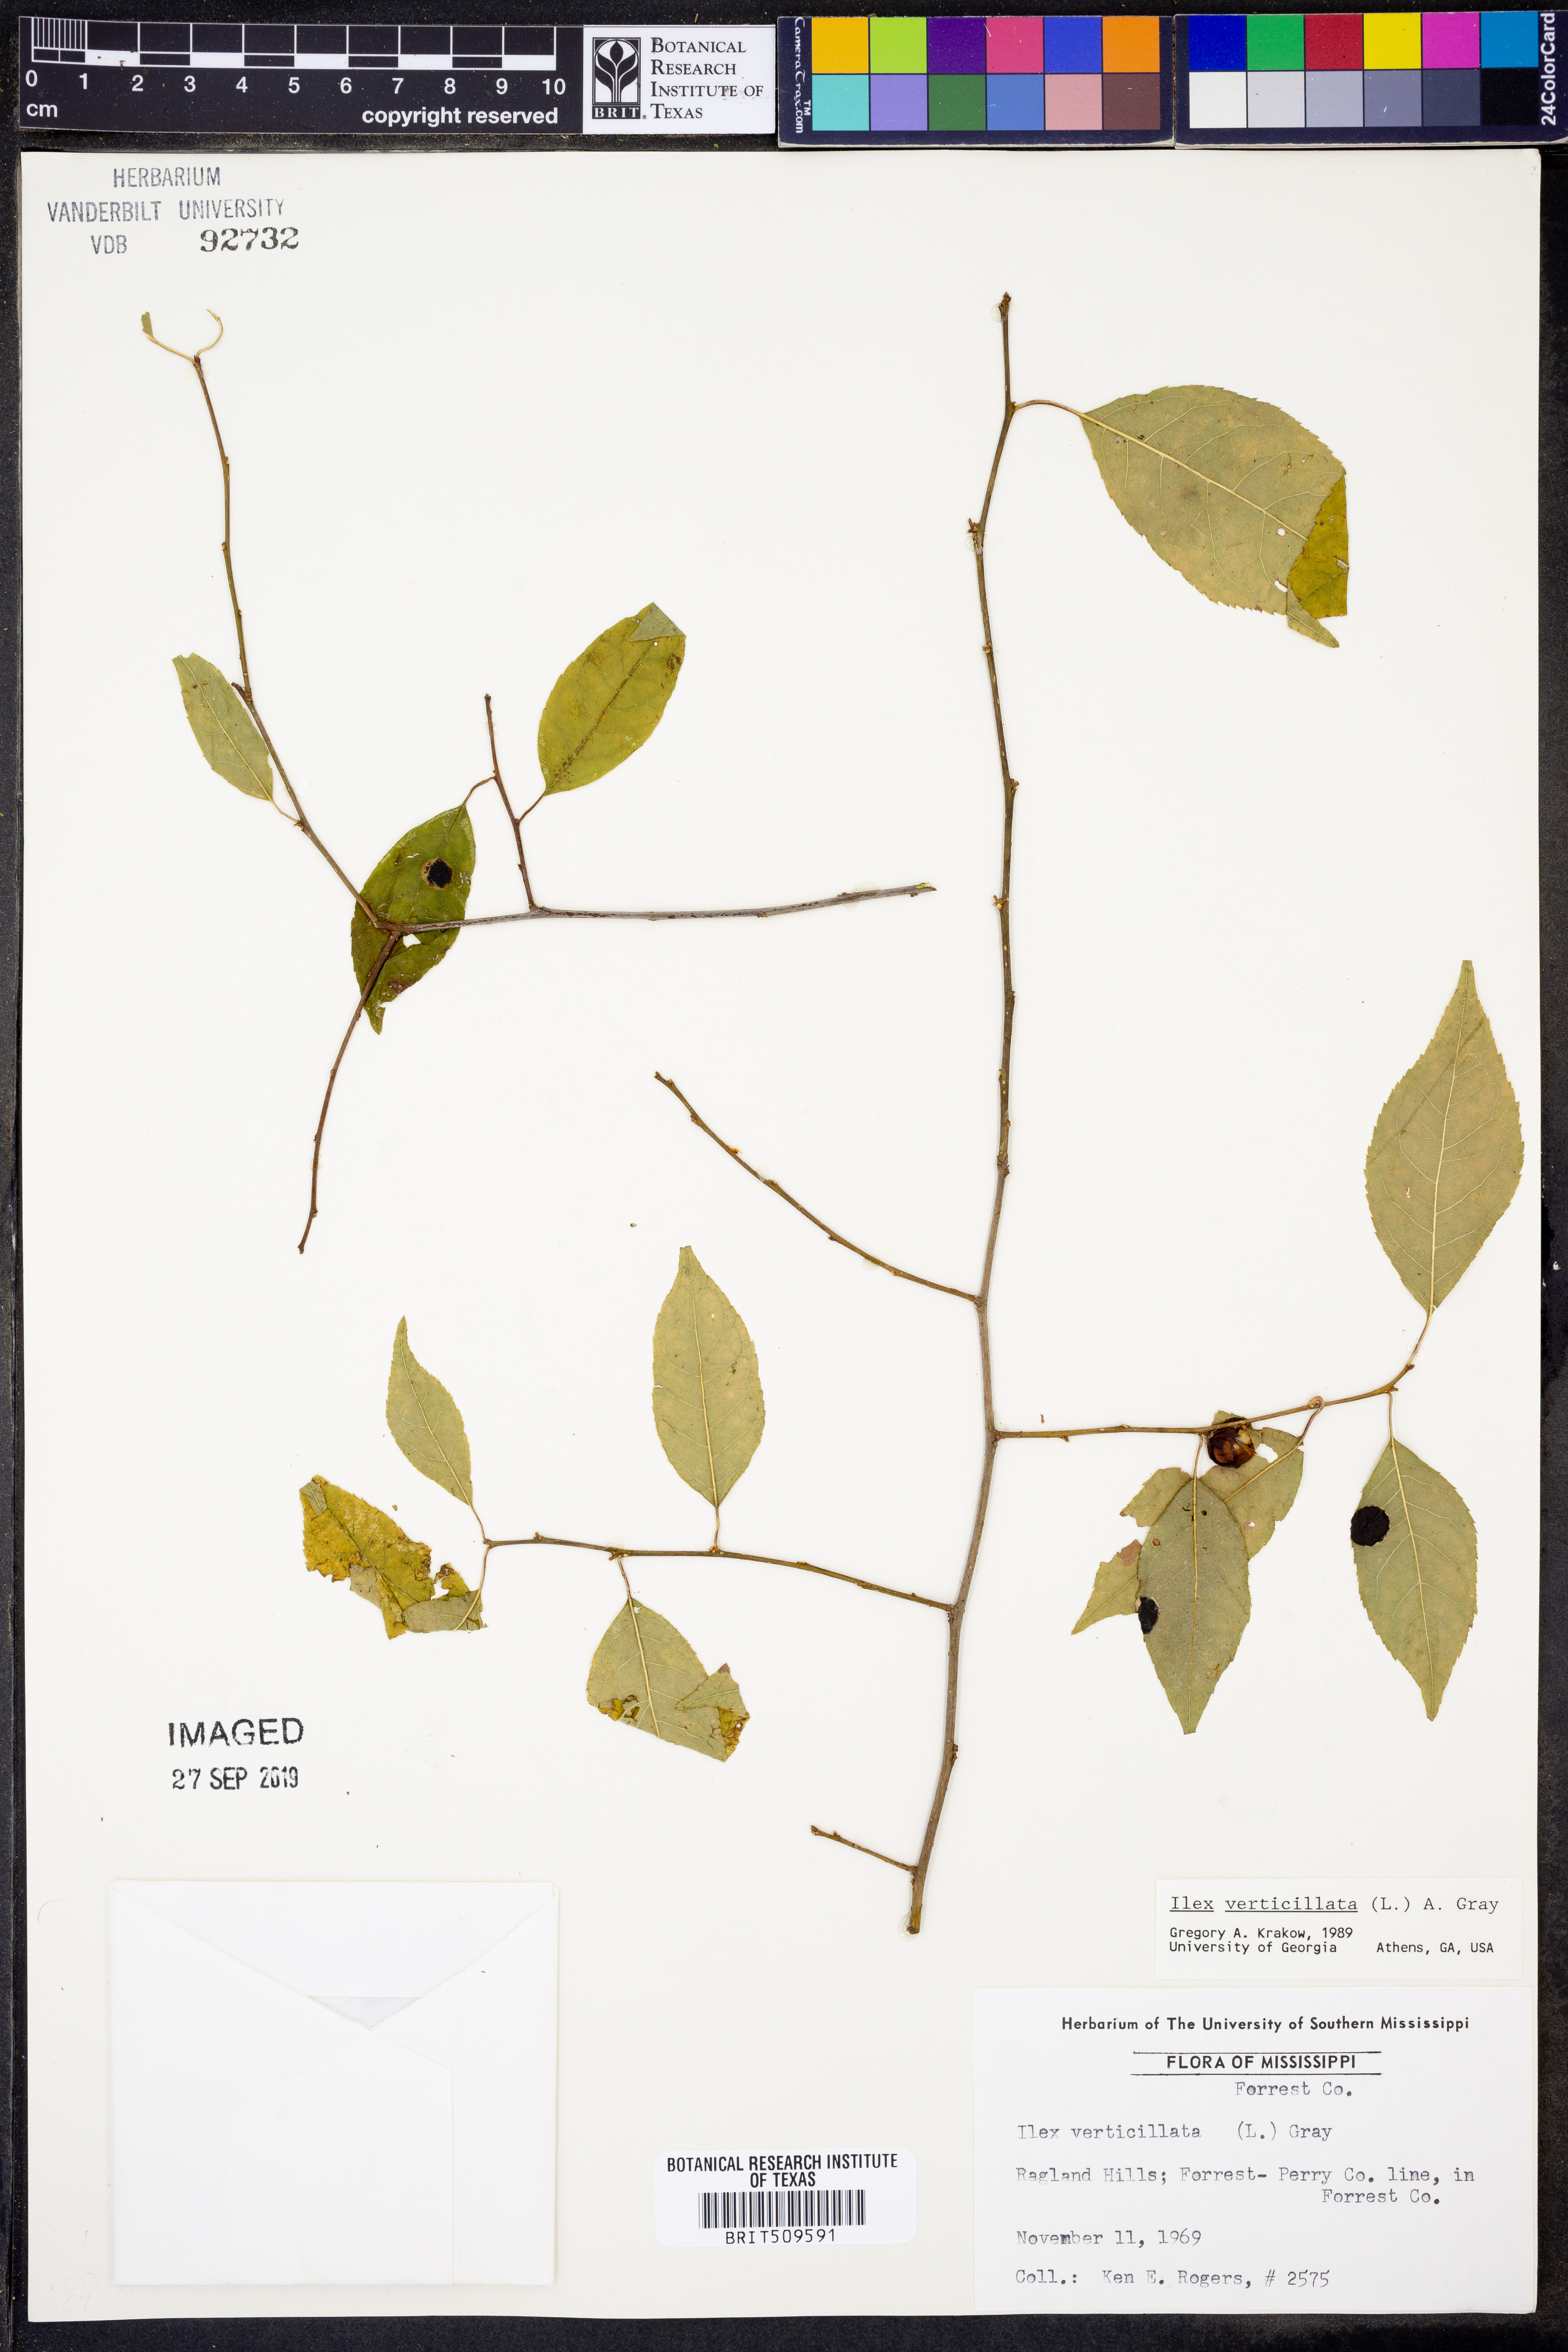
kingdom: Plantae
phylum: Tracheophyta
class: Magnoliopsida
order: Aquifoliales
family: Aquifoliaceae
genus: Ilex
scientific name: Ilex verticillata
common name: Virginia winterberry
